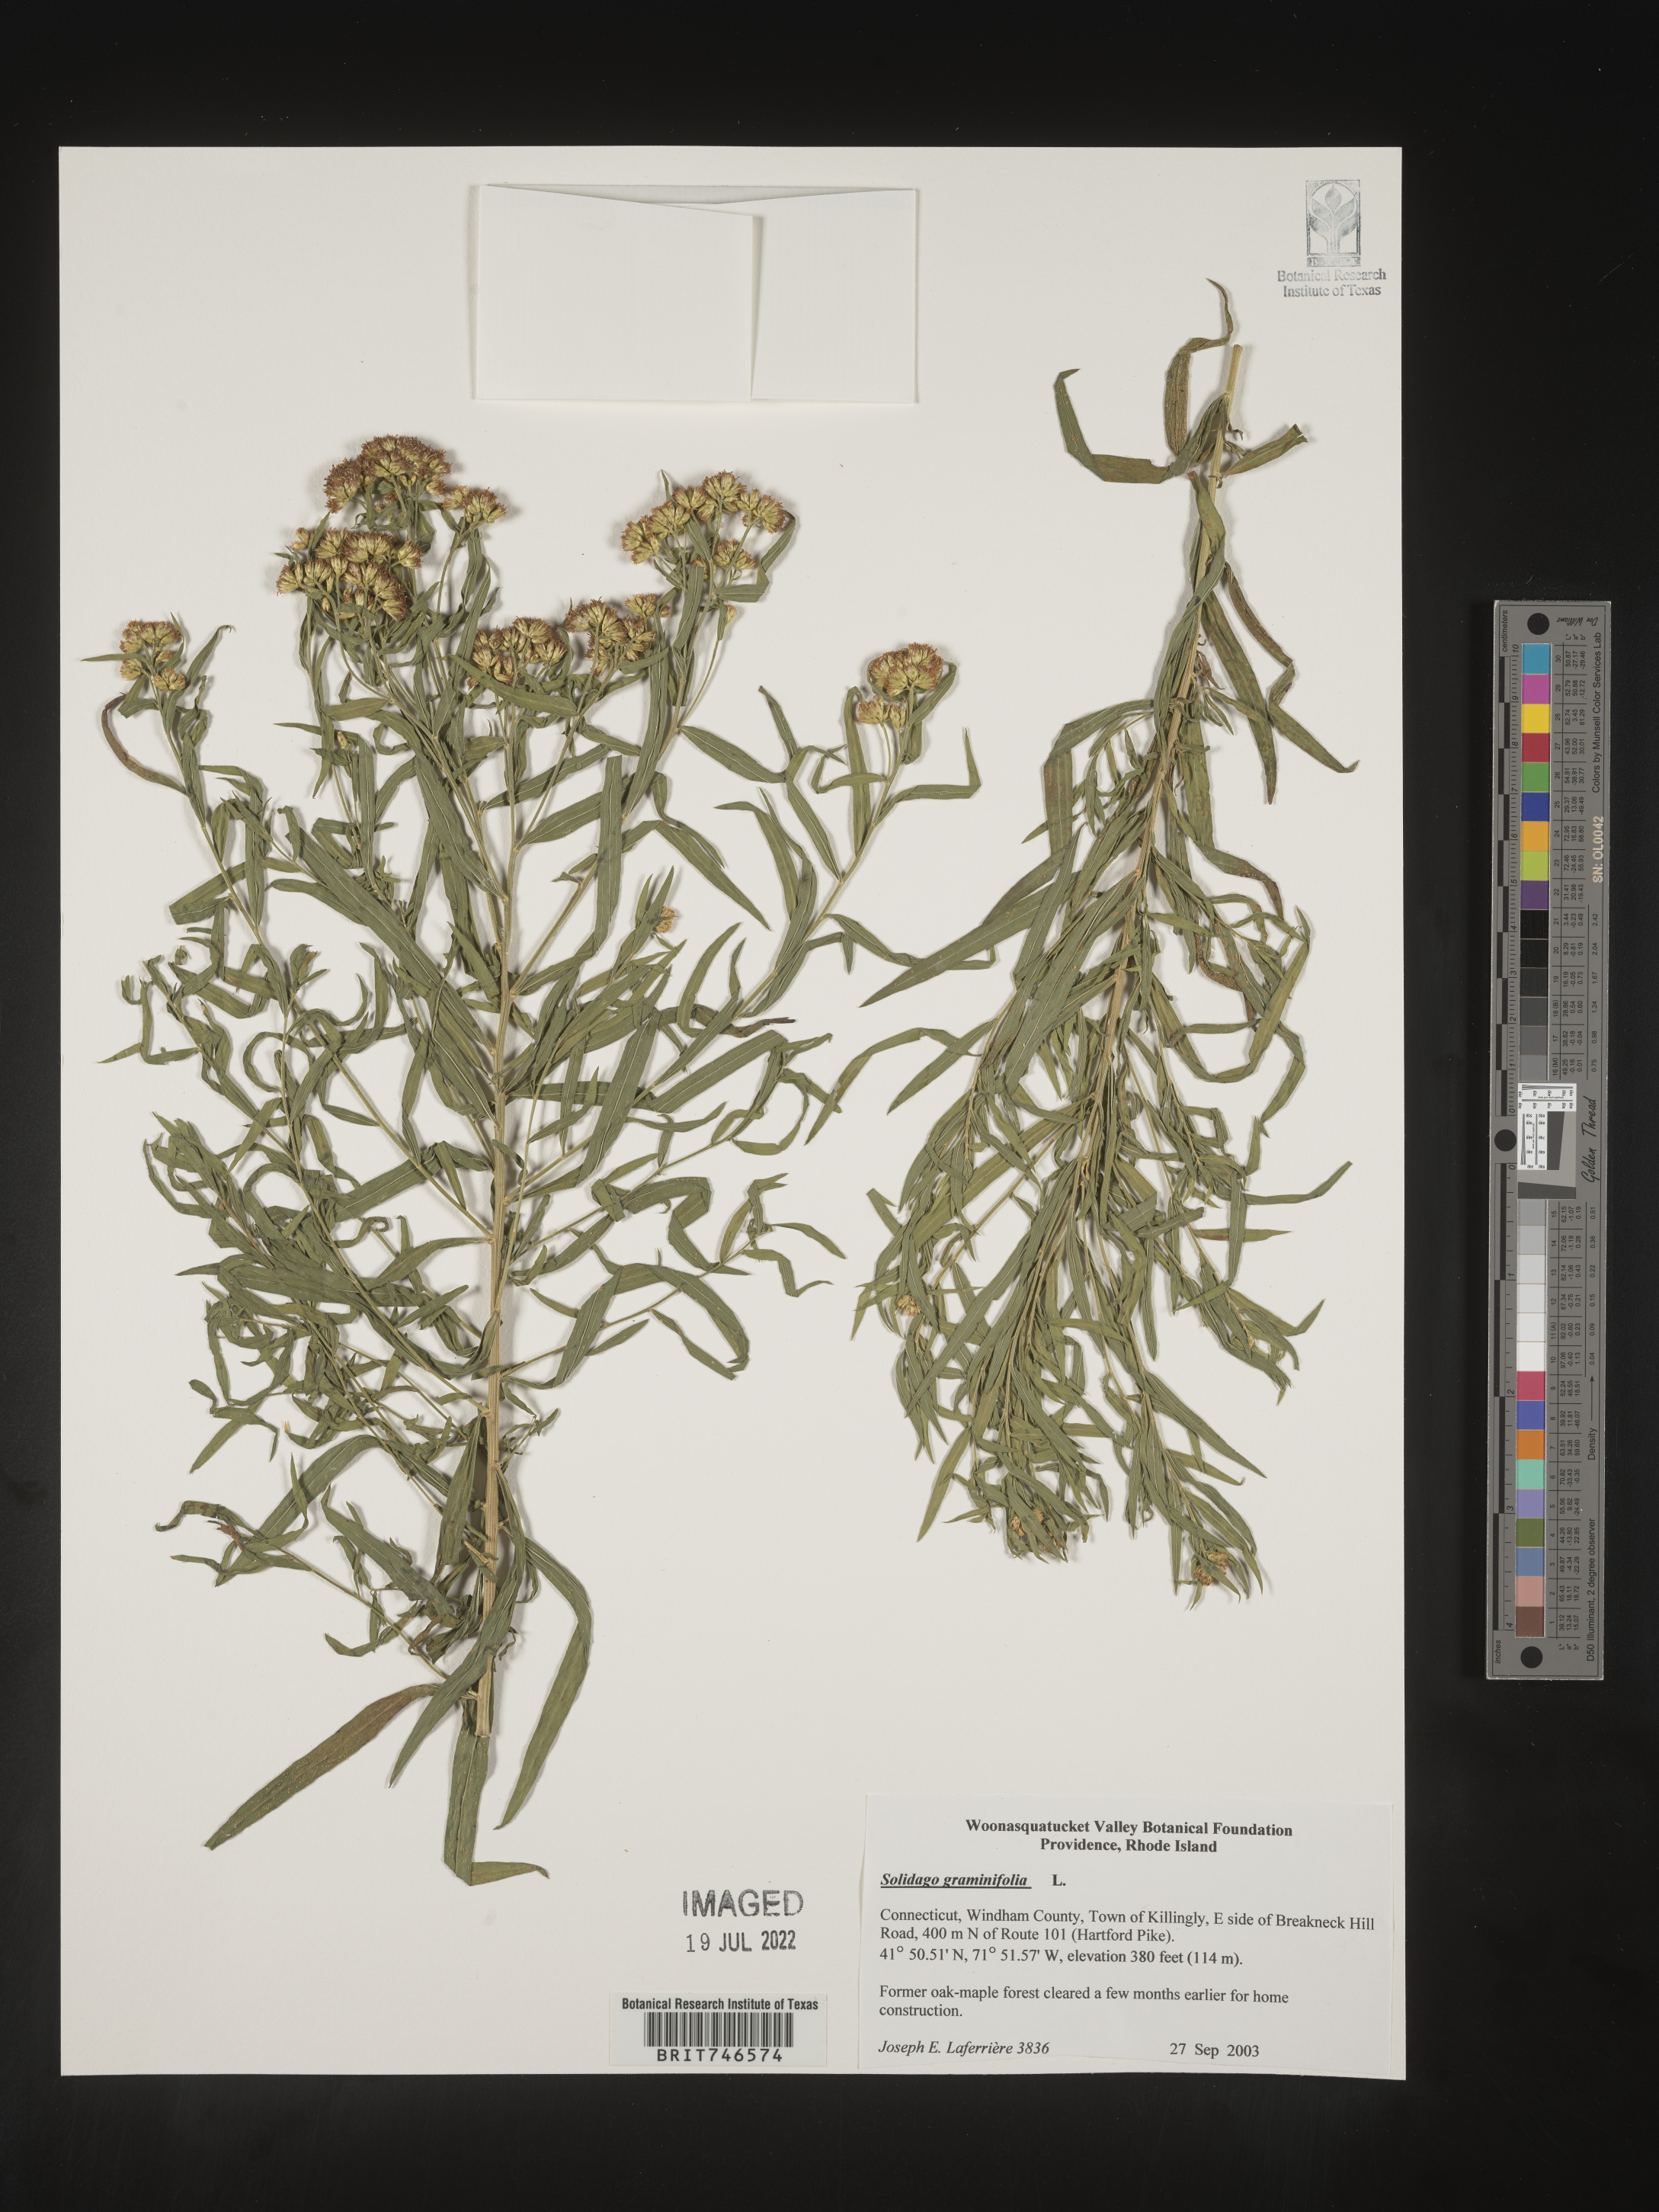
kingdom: Plantae
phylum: Tracheophyta
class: Magnoliopsida
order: Asterales
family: Asteraceae
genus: Euthamia
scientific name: Euthamia graminifolia
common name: Common goldentop
